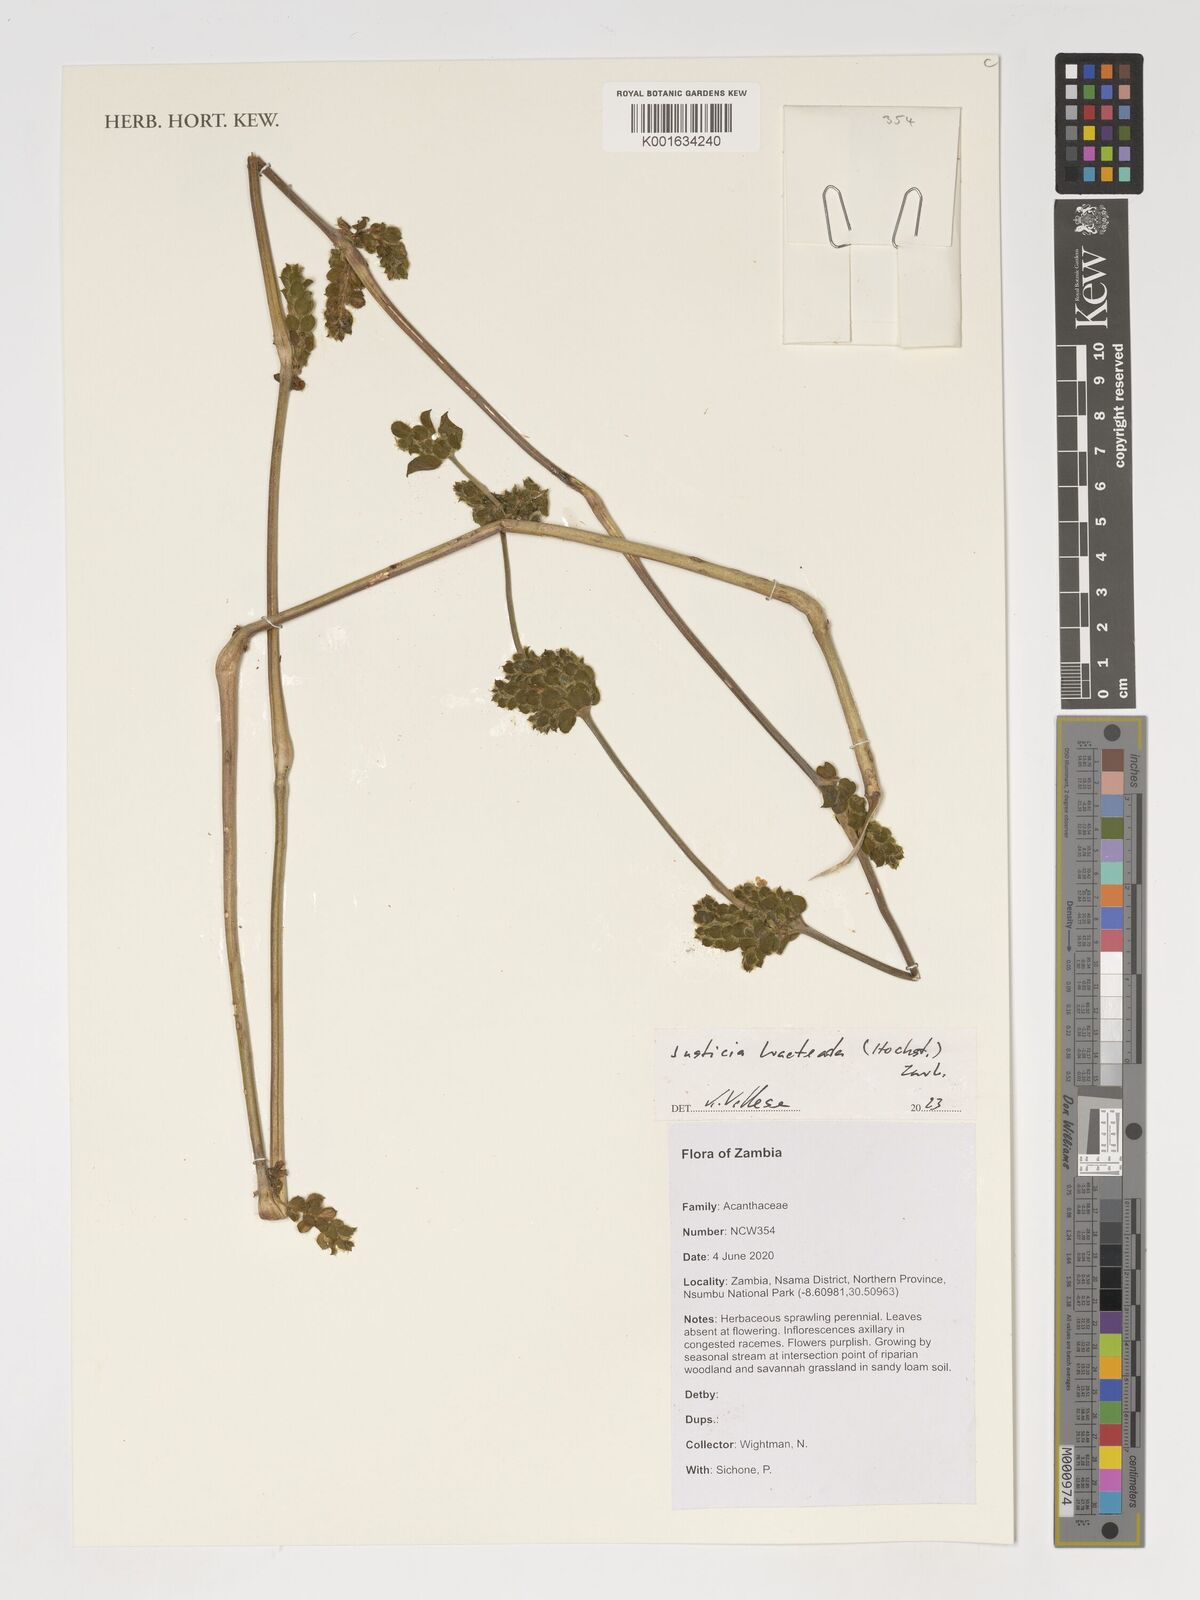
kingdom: Plantae
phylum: Tracheophyta
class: Magnoliopsida
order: Lamiales
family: Acanthaceae
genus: Monechma
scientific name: Monechma bracteatum
